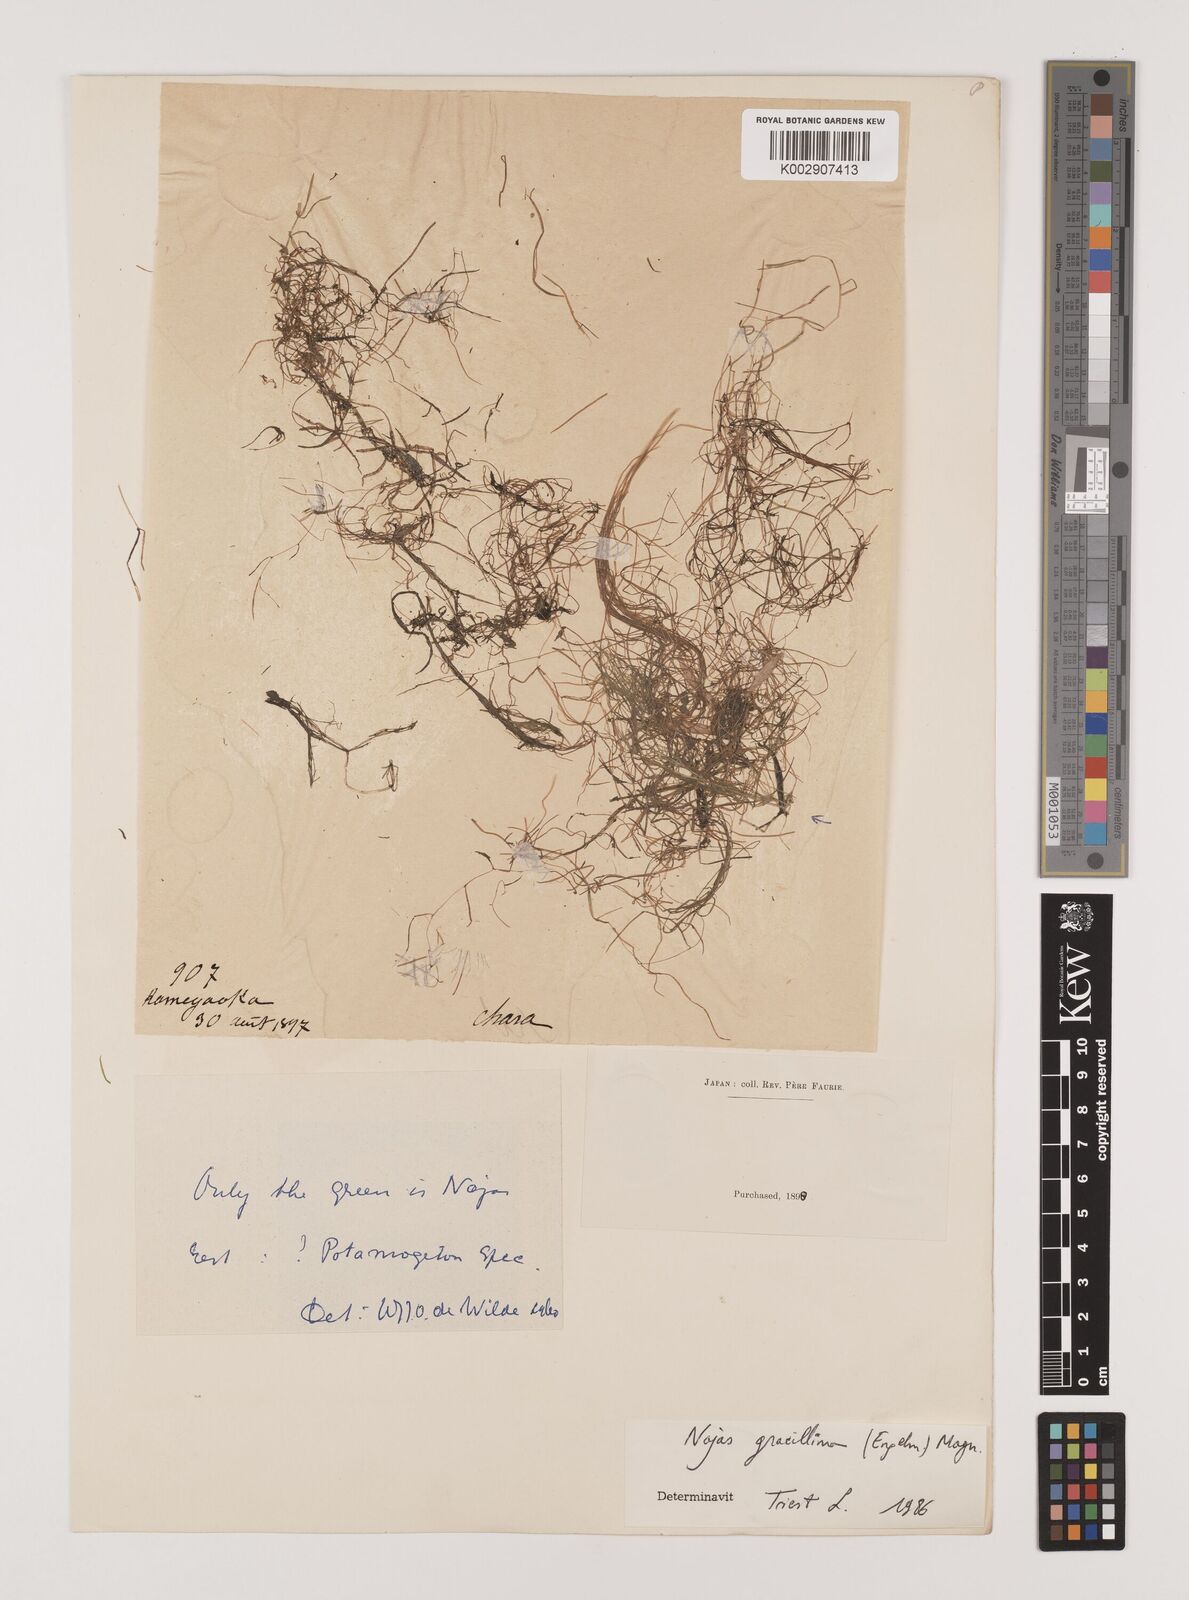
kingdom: Plantae
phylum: Tracheophyta
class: Liliopsida
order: Alismatales
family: Hydrocharitaceae
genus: Najas
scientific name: Najas gracillima
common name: Slender water-nymph
